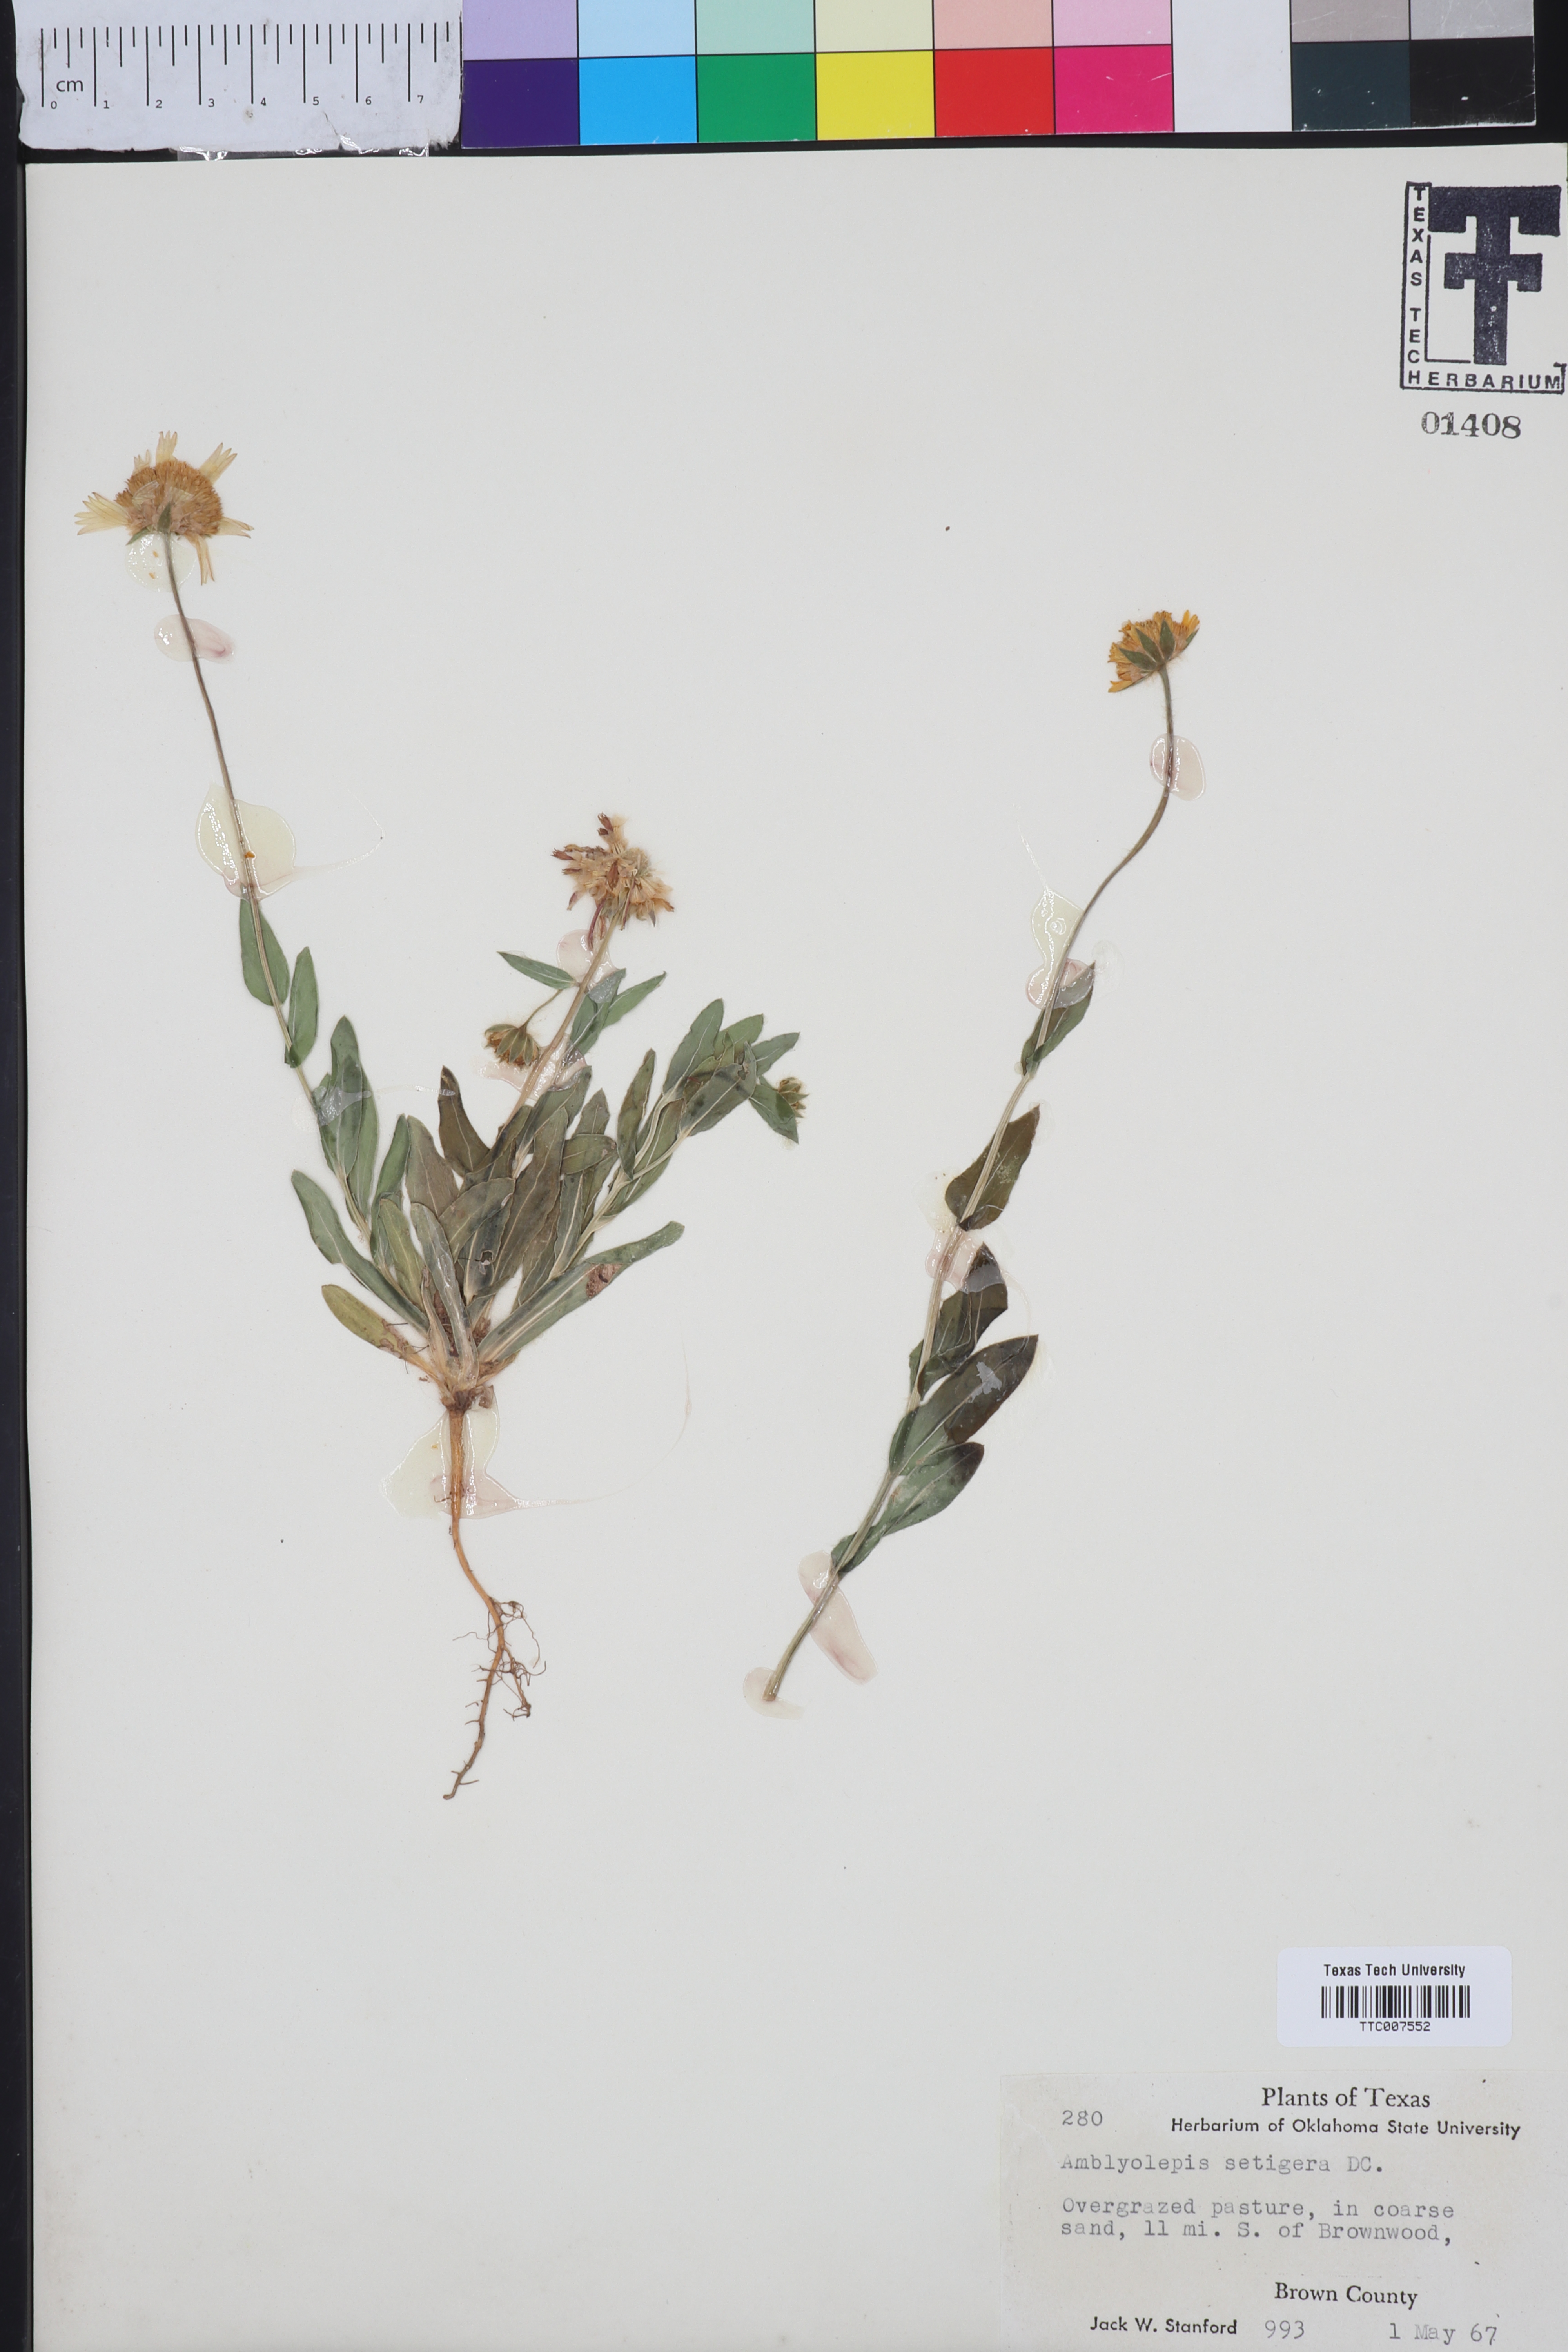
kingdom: Plantae
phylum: Tracheophyta
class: Magnoliopsida
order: Asterales
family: Asteraceae
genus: Amblyolepis
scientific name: Amblyolepis setigera
